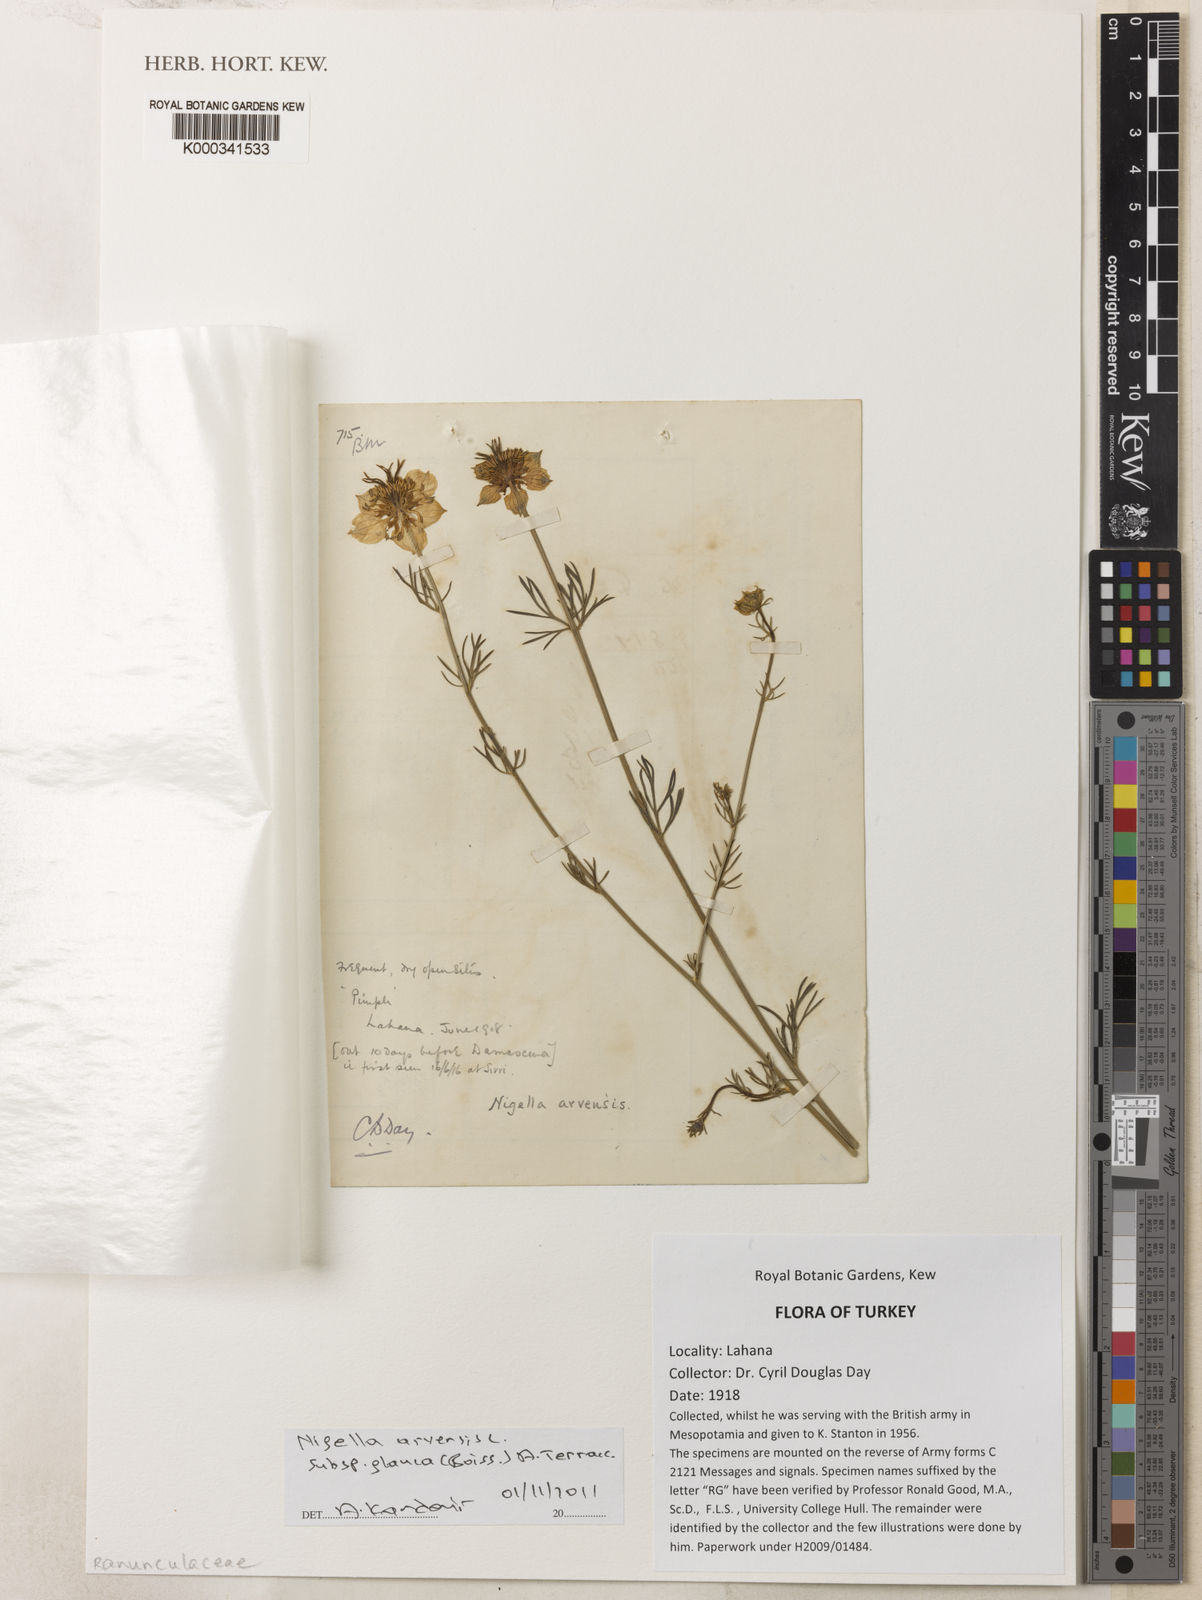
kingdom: Plantae
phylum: Tracheophyta
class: Magnoliopsida
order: Ranunculales
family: Ranunculaceae
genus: Nigella
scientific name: Nigella arvensis
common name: Wild fennel-flower
